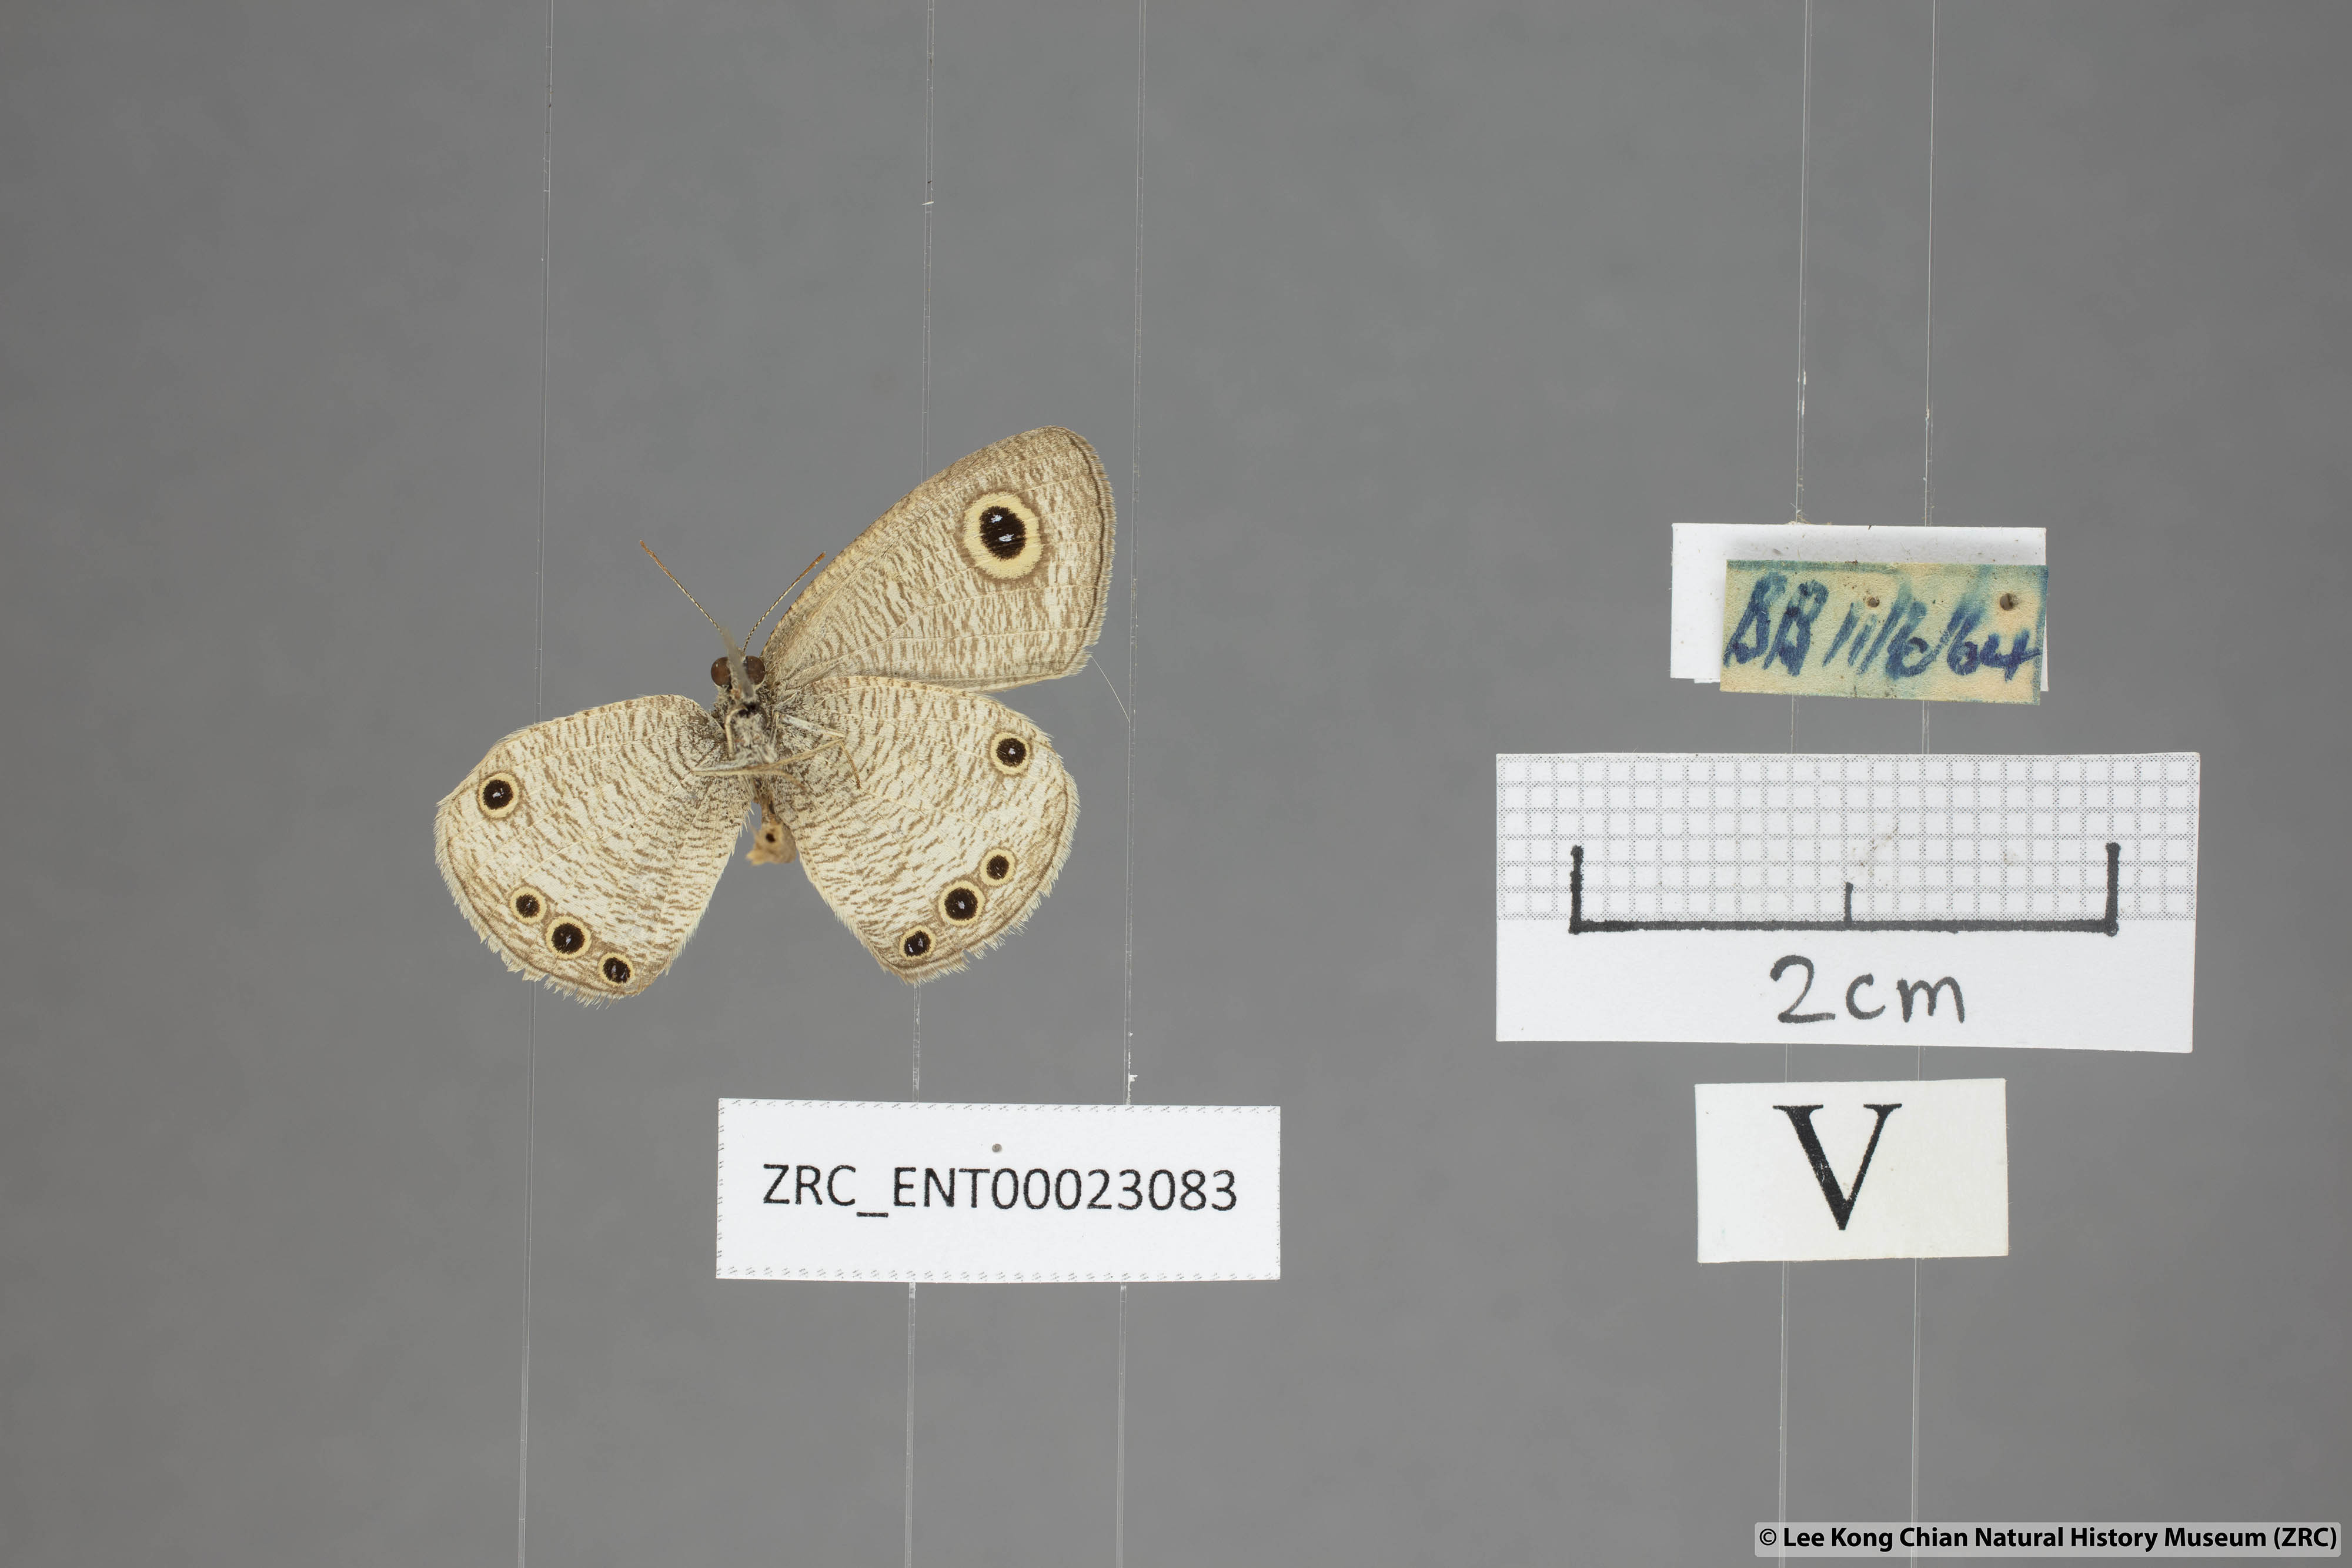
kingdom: Animalia
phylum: Arthropoda
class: Insecta
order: Lepidoptera
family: Nymphalidae
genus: Ypthima
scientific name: Ypthima huebneri
